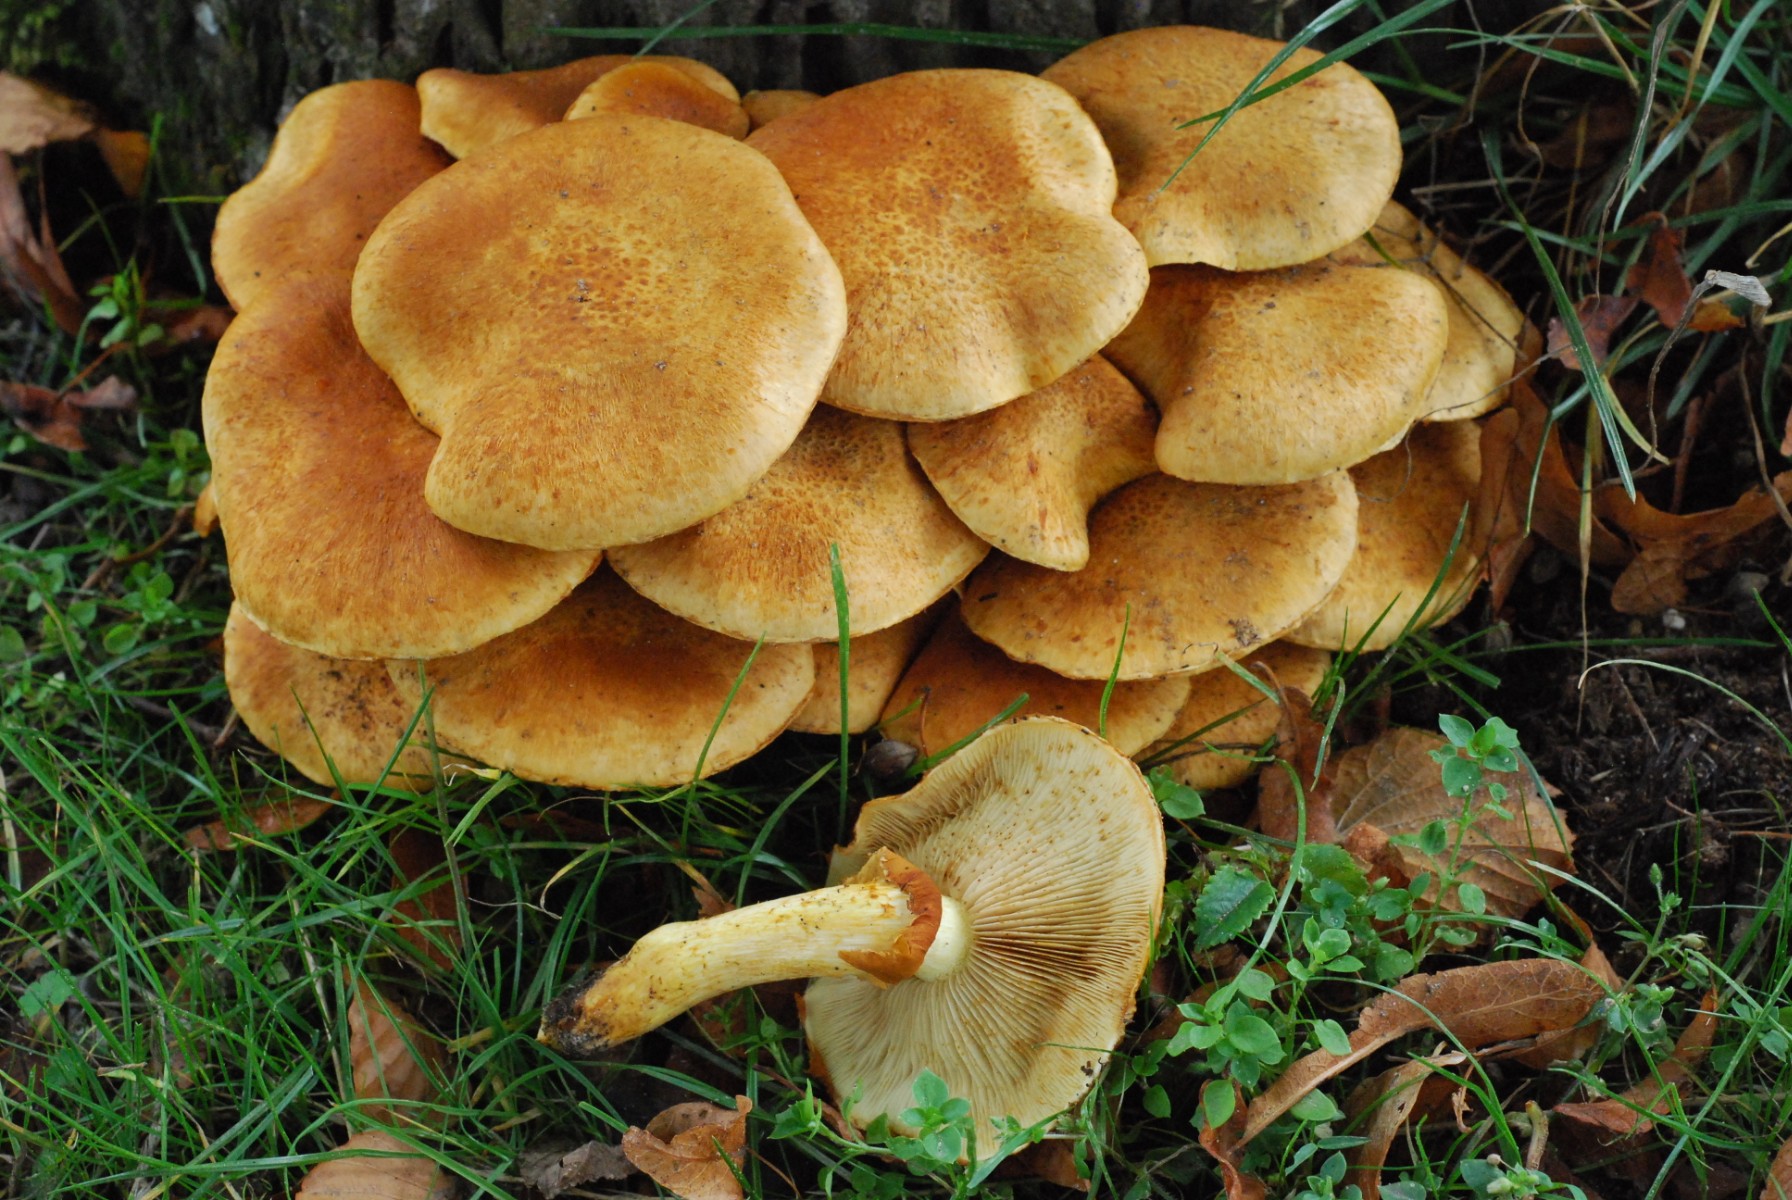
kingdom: Fungi
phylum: Basidiomycota
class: Agaricomycetes
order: Agaricales
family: Hymenogastraceae
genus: Gymnopilus
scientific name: Gymnopilus spectabilis
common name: fibret flammehat
